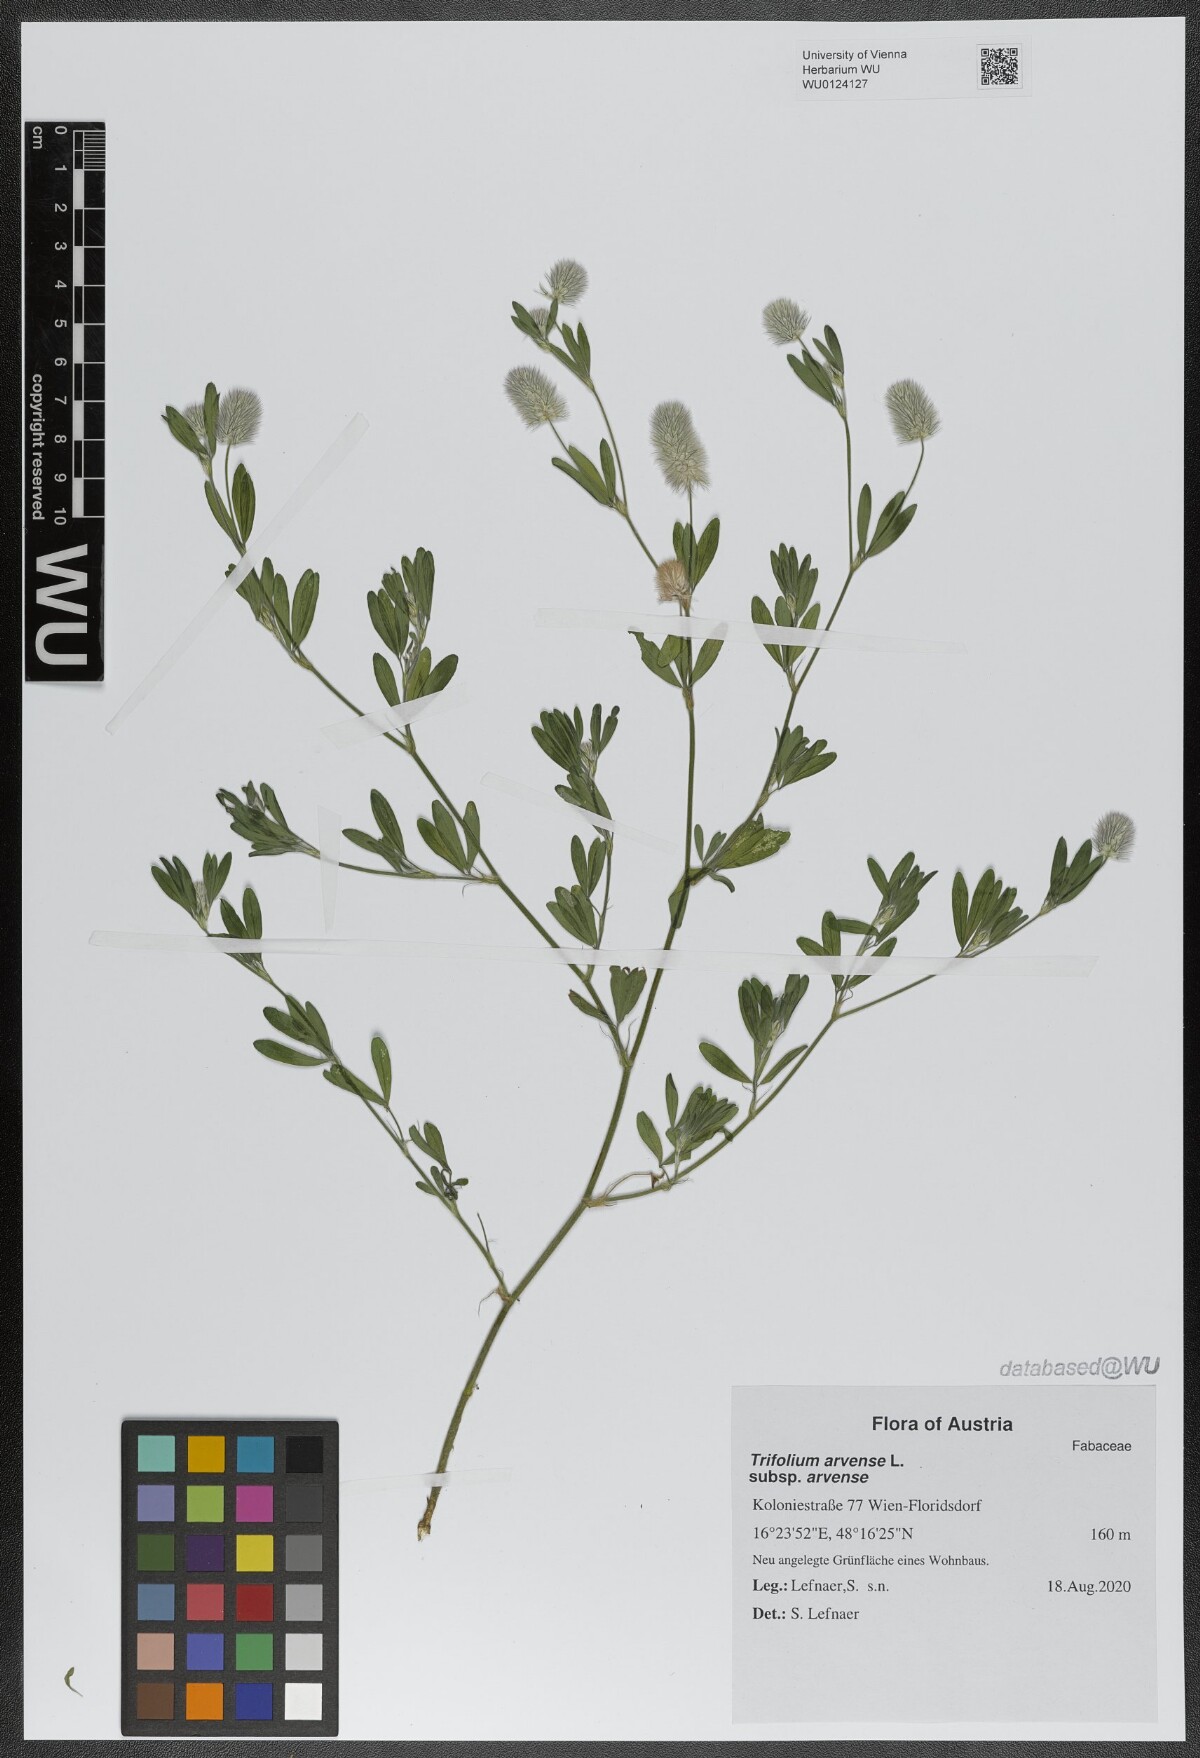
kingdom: Plantae
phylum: Tracheophyta
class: Magnoliopsida
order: Fabales
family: Fabaceae
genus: Trifolium
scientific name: Trifolium arvense
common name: Hare's-foot clover
